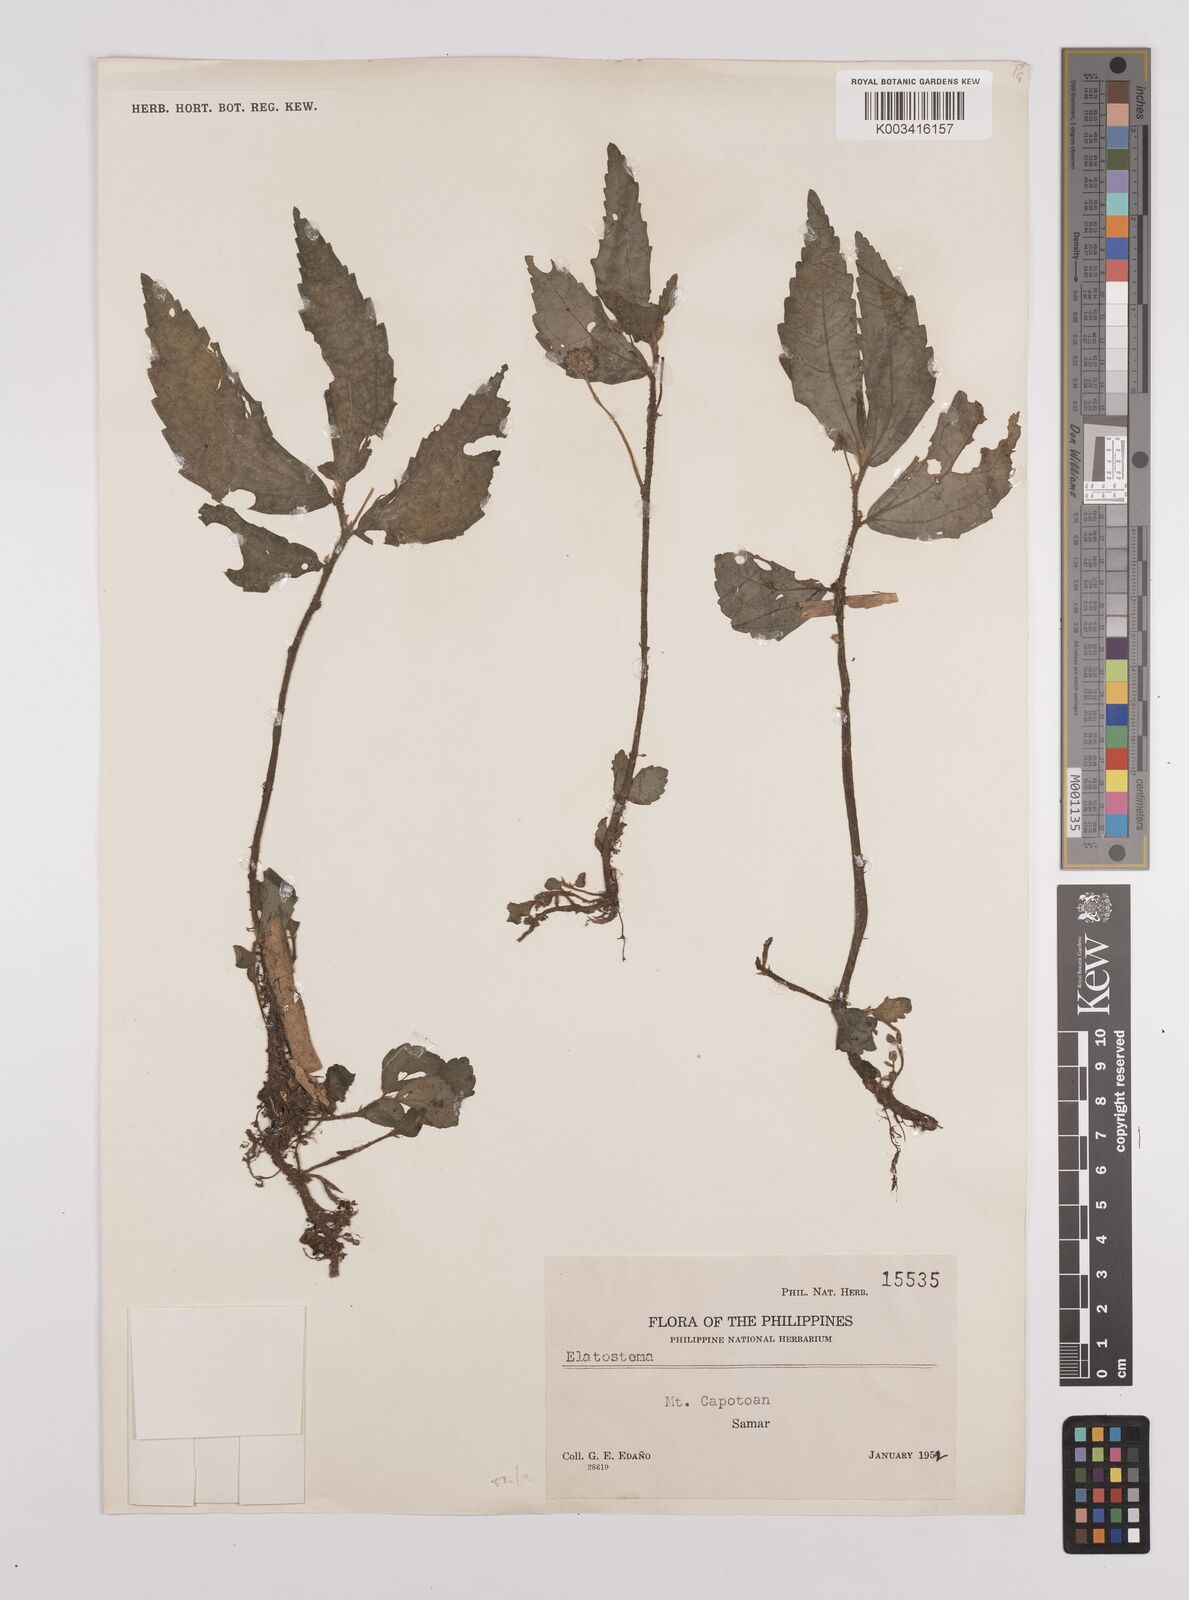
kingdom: Plantae
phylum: Tracheophyta
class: Magnoliopsida
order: Rosales
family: Urticaceae
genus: Elatostema
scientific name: Elatostema
